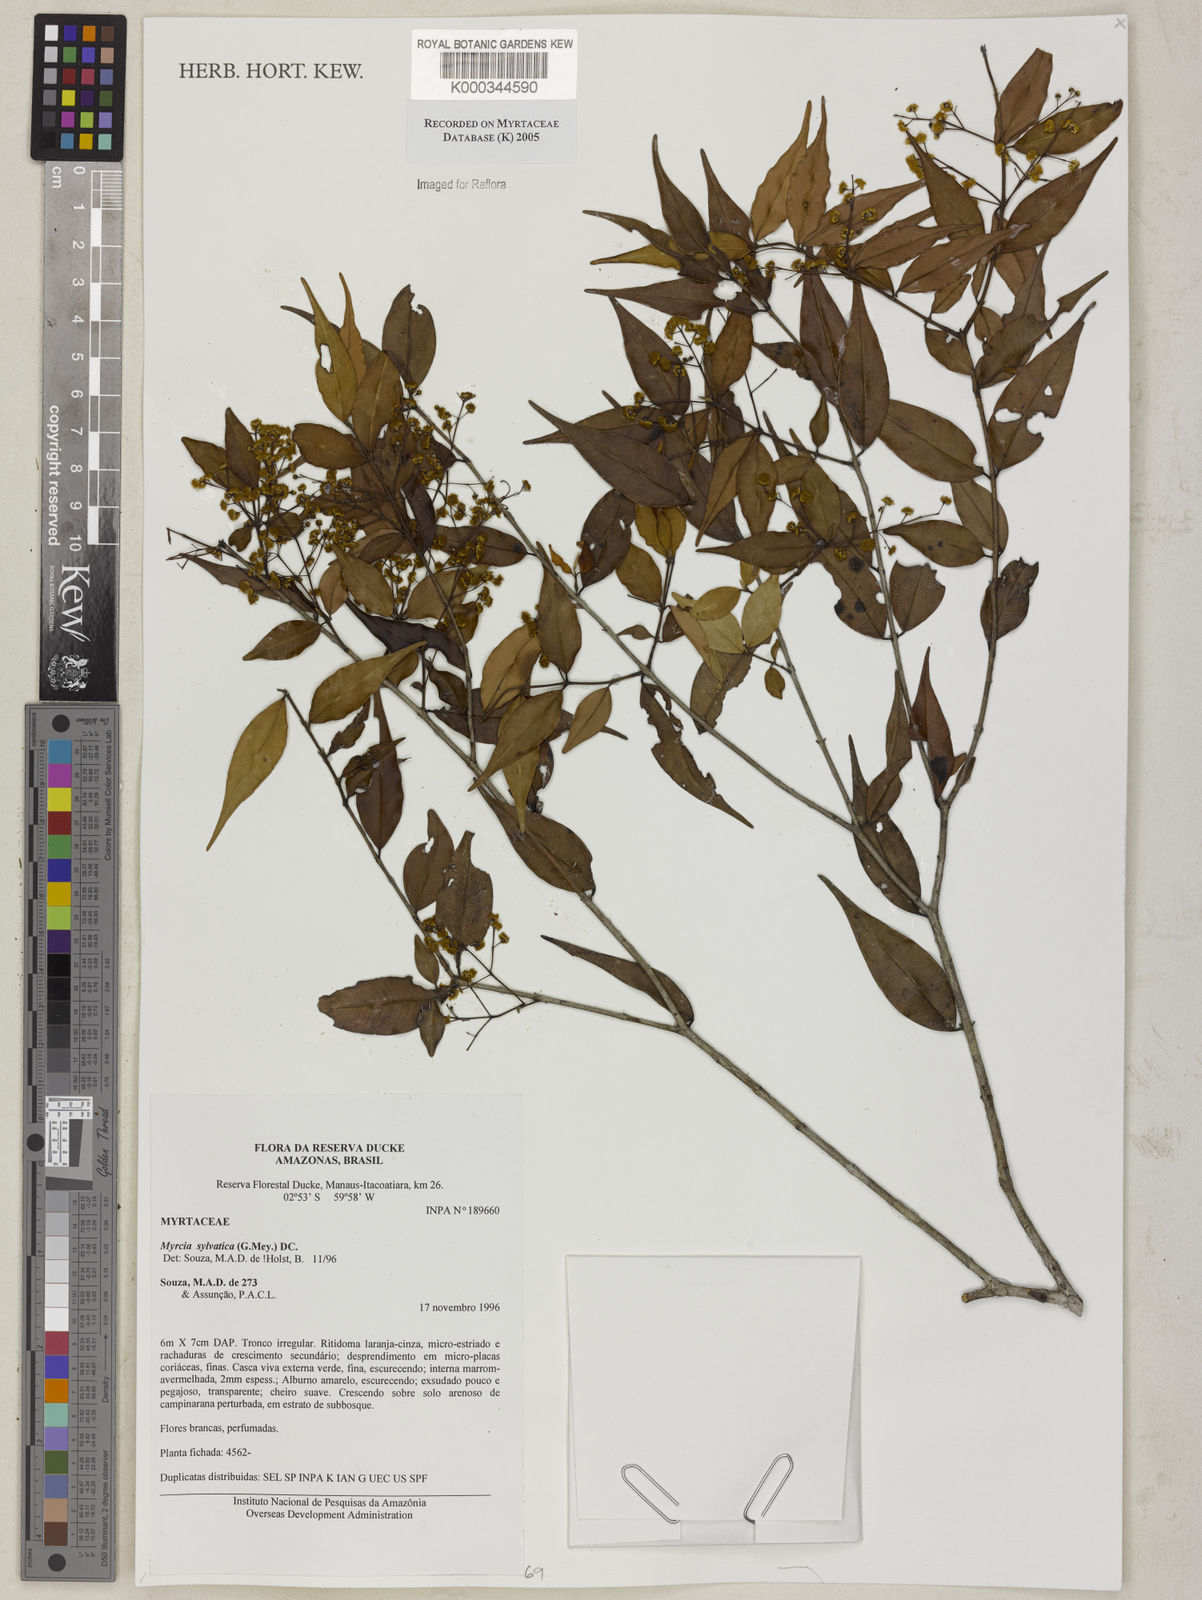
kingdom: Plantae
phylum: Tracheophyta
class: Magnoliopsida
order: Myrtales
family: Myrtaceae
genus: Myrcia
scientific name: Myrcia sylvatica
